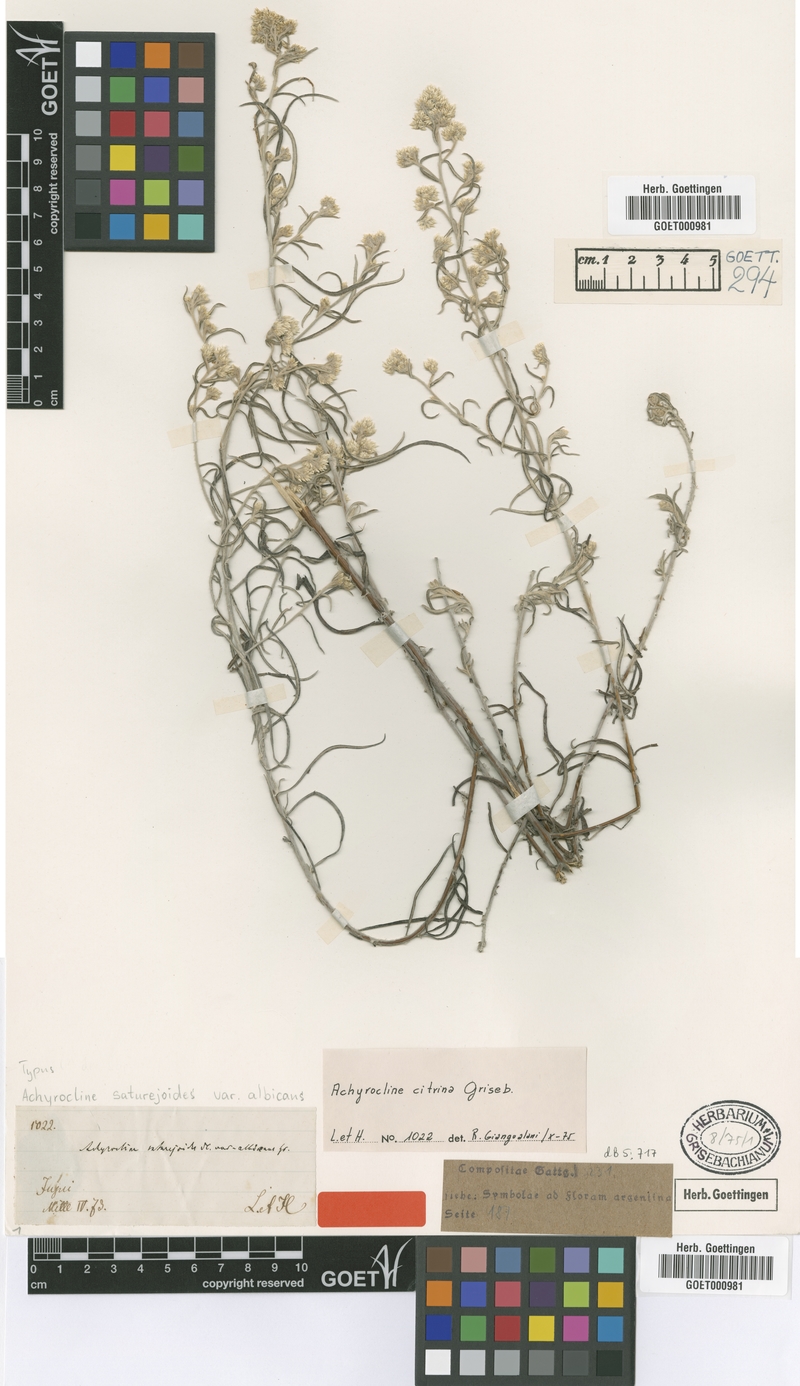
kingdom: Plantae
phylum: Tracheophyta
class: Magnoliopsida
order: Asterales
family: Asteraceae
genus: Achyrocline
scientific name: Achyrocline flaccida
